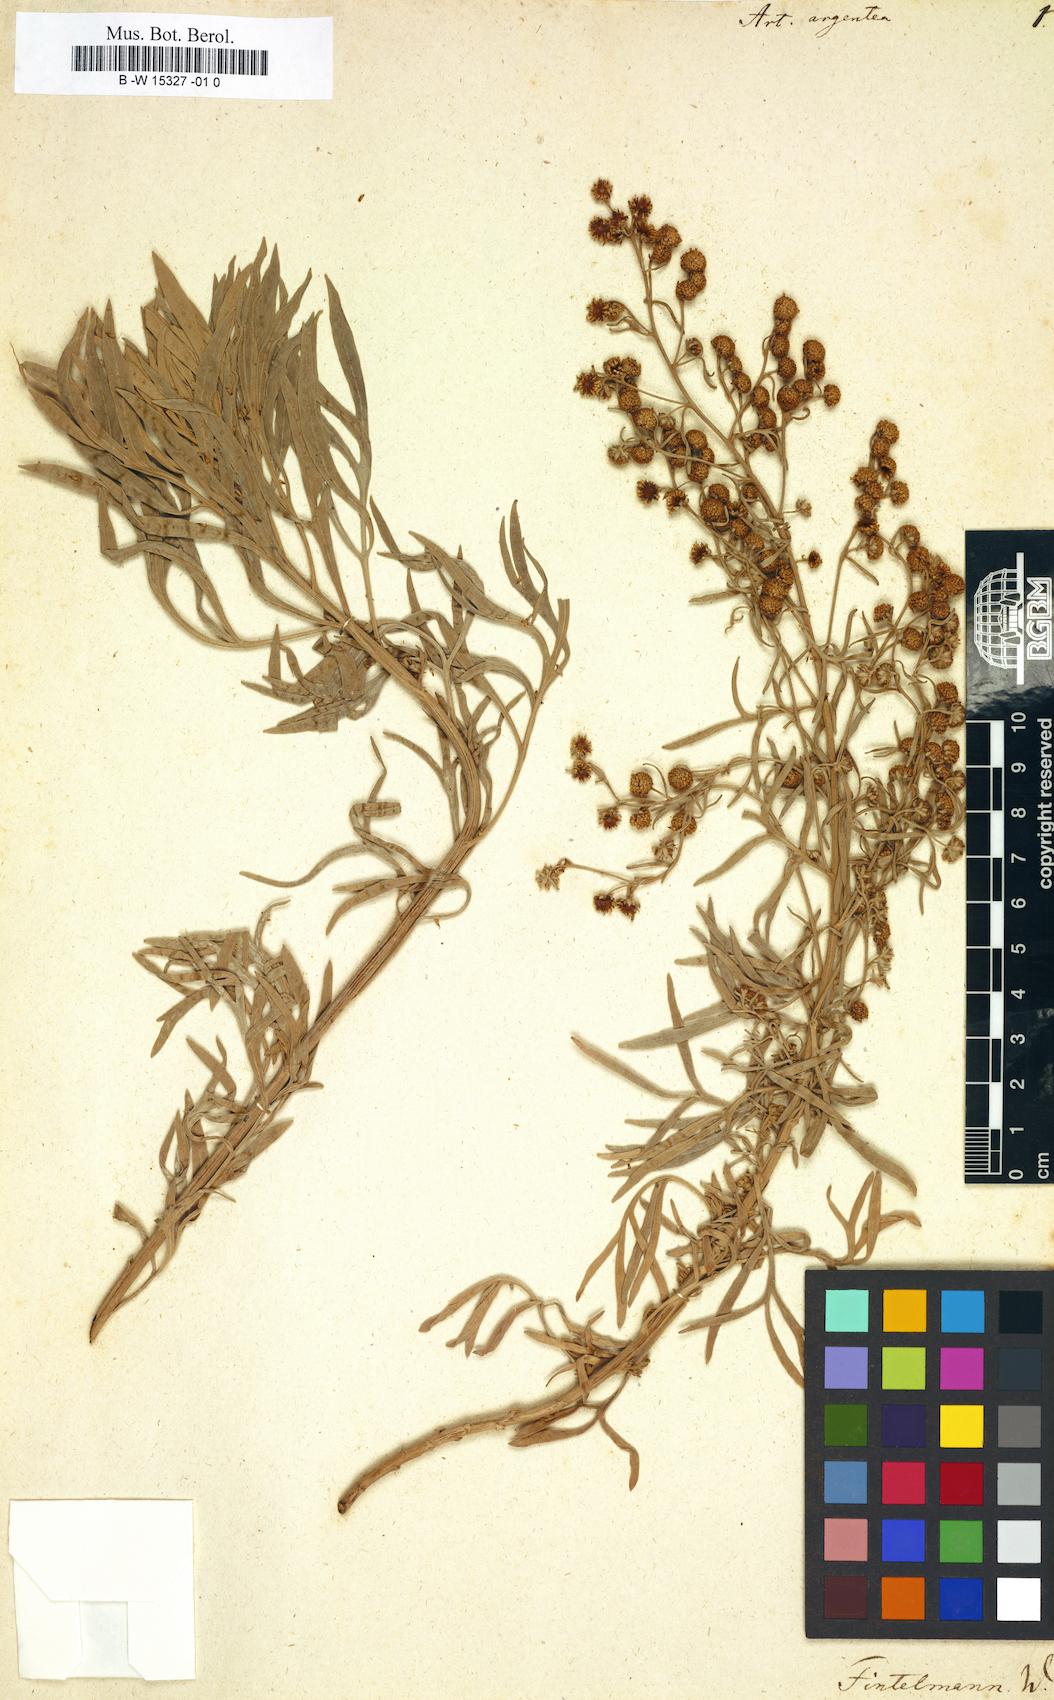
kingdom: Plantae
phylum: Tracheophyta
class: Magnoliopsida
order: Asterales
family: Asteraceae
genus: Artemisia
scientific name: Artemisia argentea
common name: Madeira wormwood
